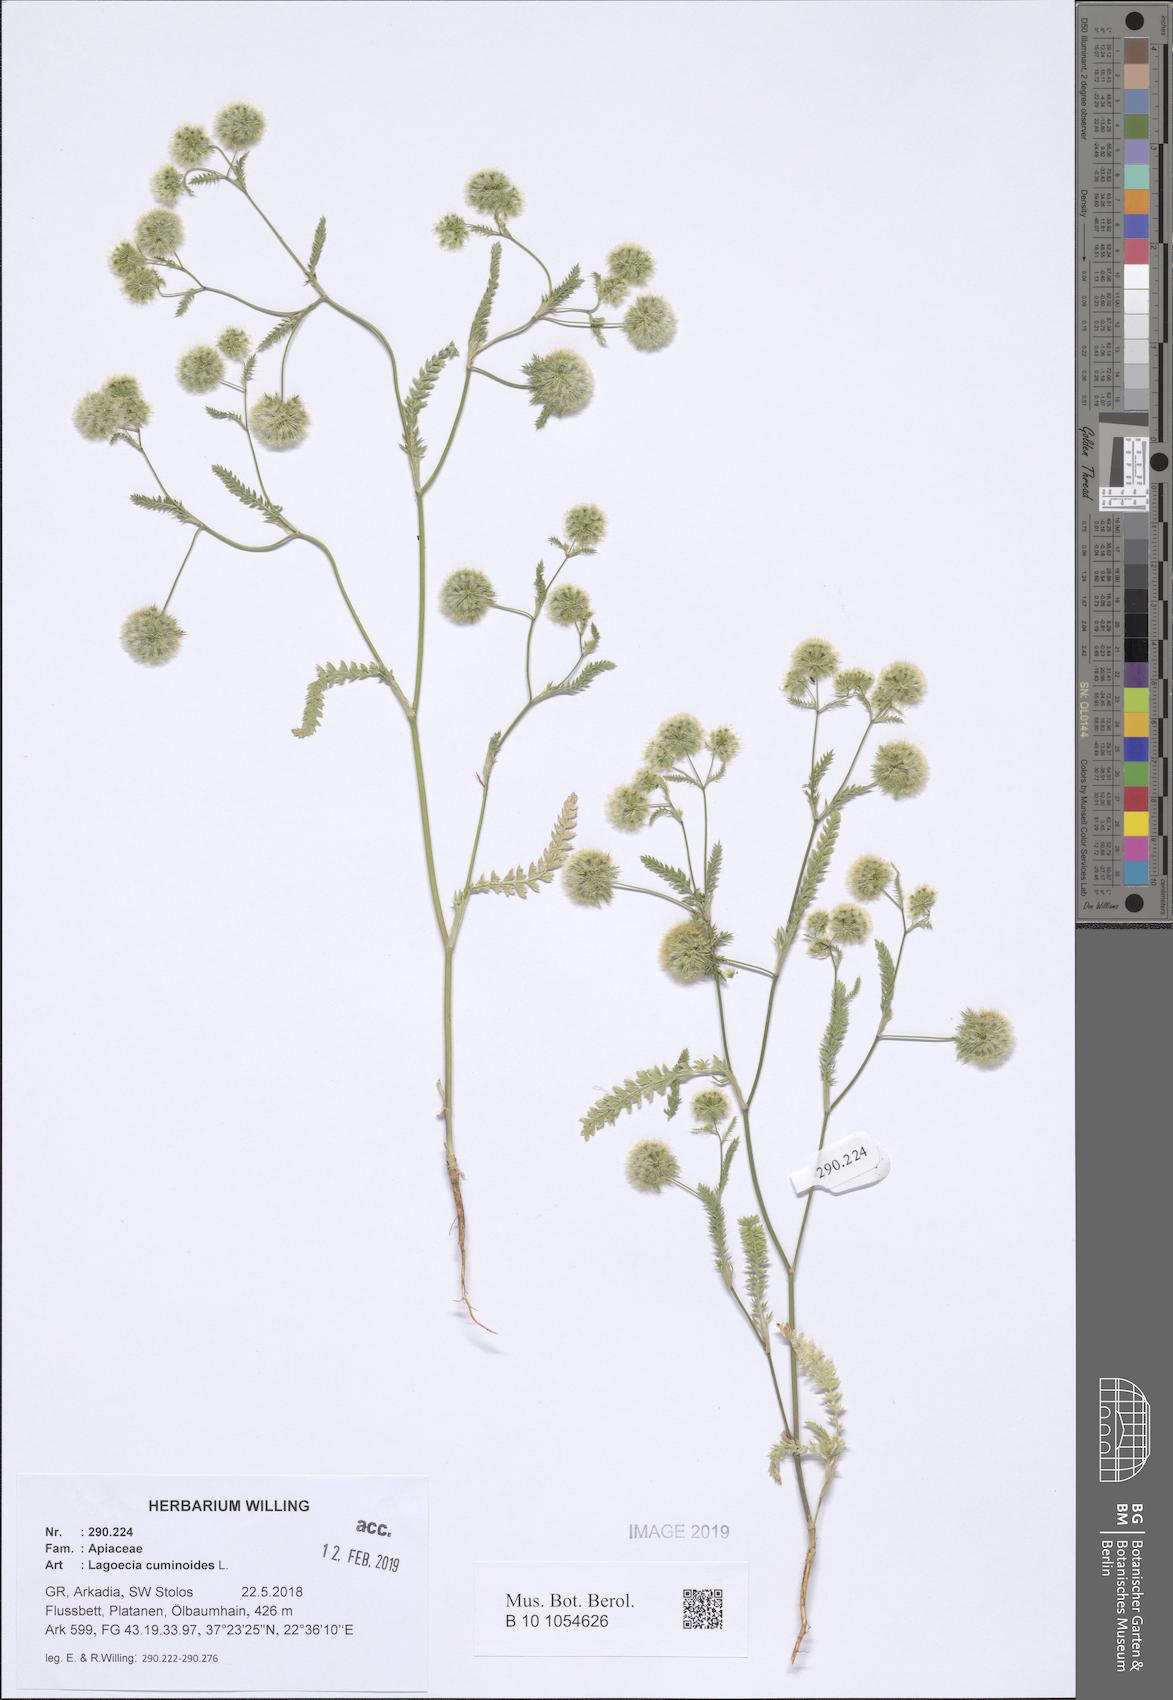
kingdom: Plantae
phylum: Tracheophyta
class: Magnoliopsida
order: Apiales
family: Apiaceae
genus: Lagoecia
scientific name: Lagoecia cuminoides
